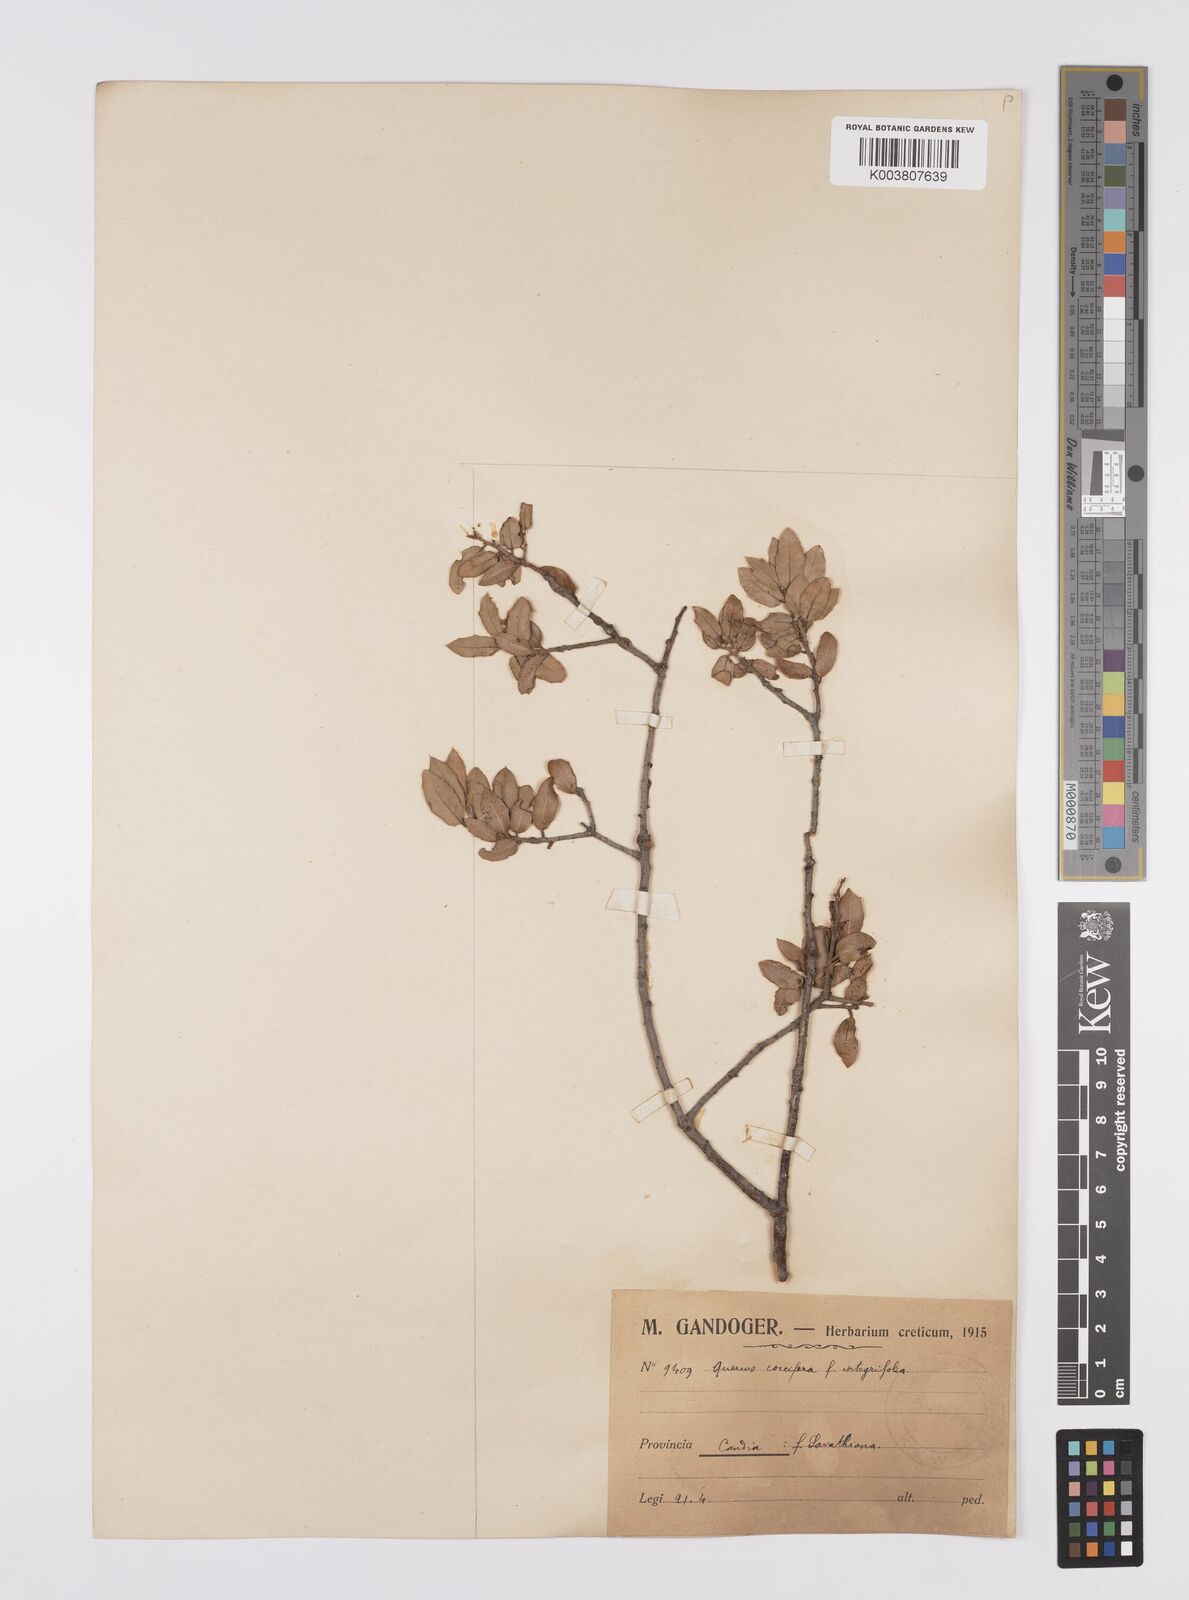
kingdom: Plantae
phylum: Tracheophyta
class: Magnoliopsida
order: Fagales
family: Fagaceae
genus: Quercus
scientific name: Quercus coccifera
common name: Kermes oak
